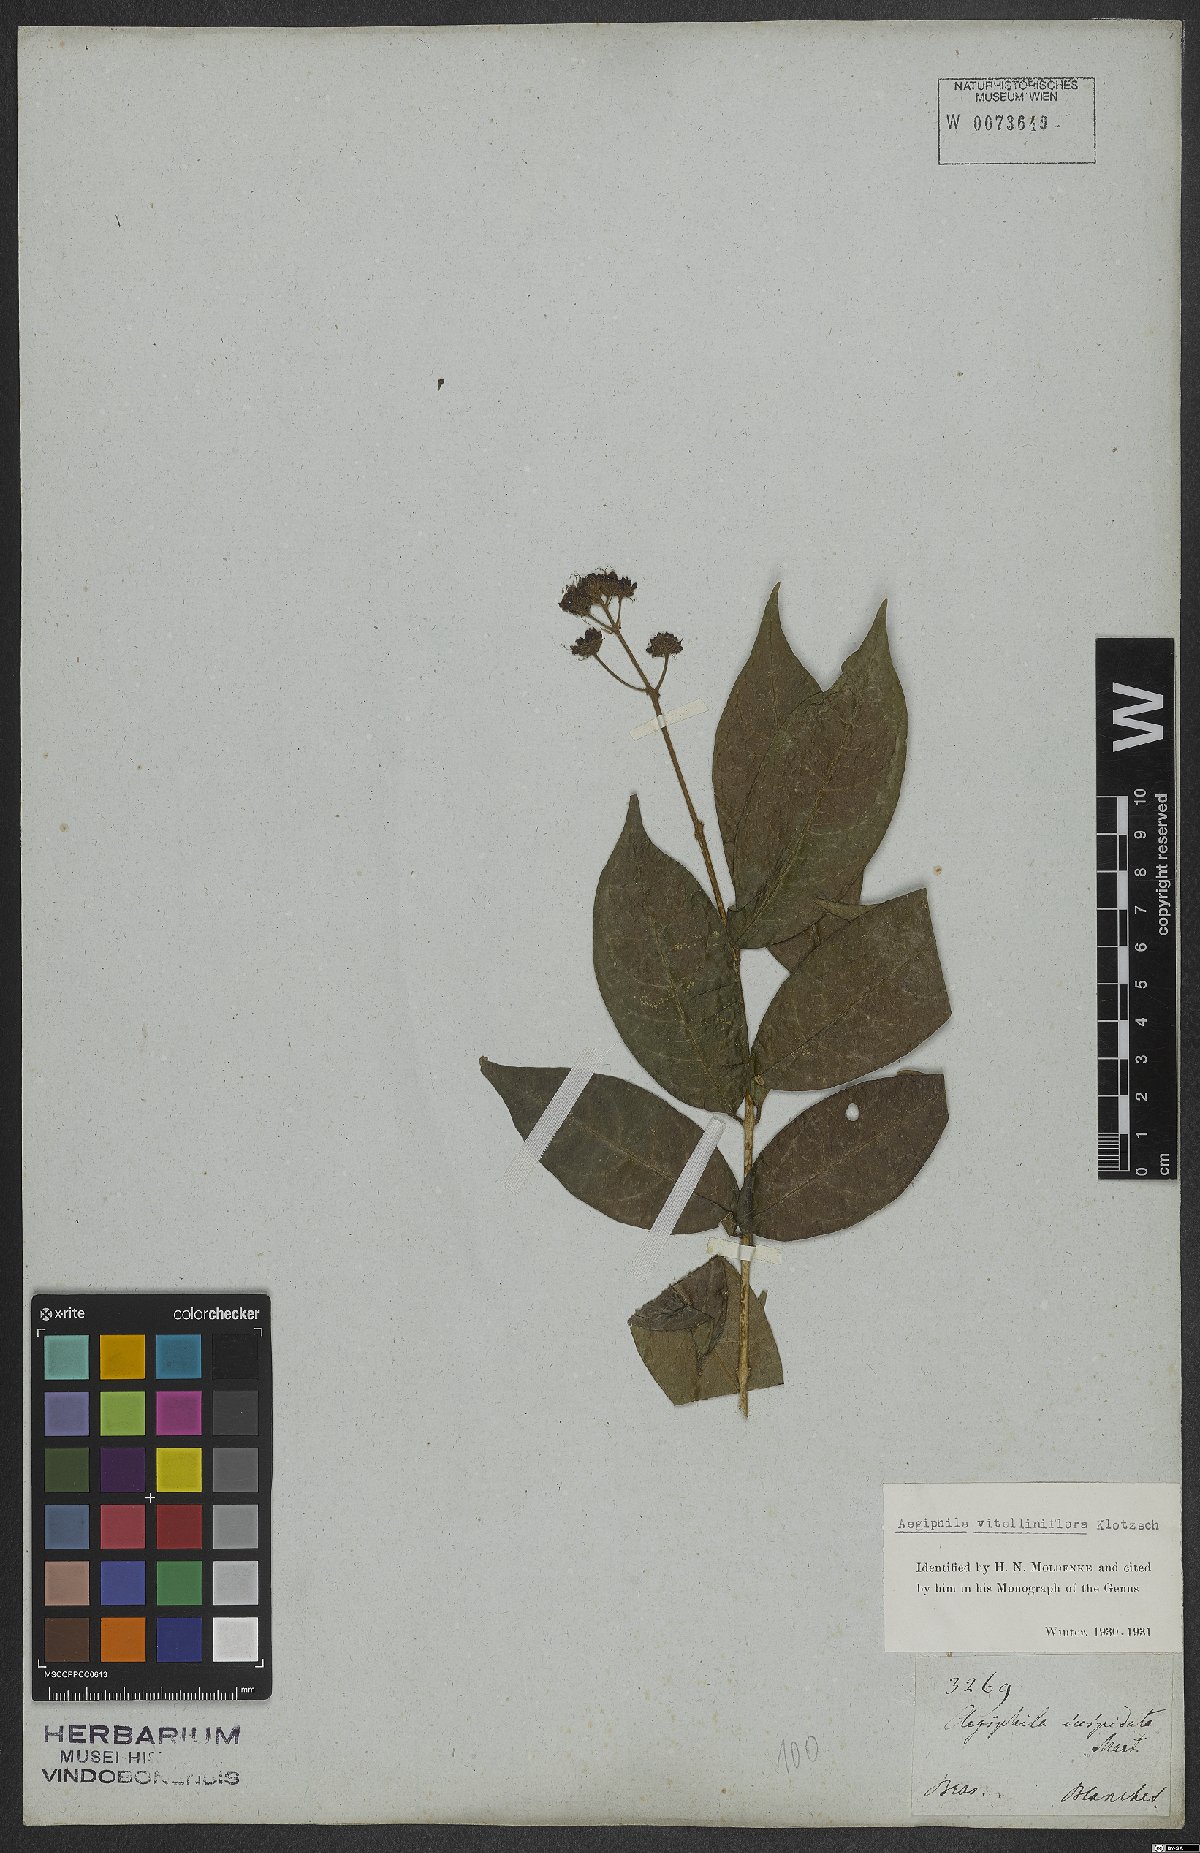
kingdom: Plantae
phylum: Tracheophyta
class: Magnoliopsida
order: Lamiales
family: Lamiaceae
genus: Aegiphila
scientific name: Aegiphila vitelliniflora
